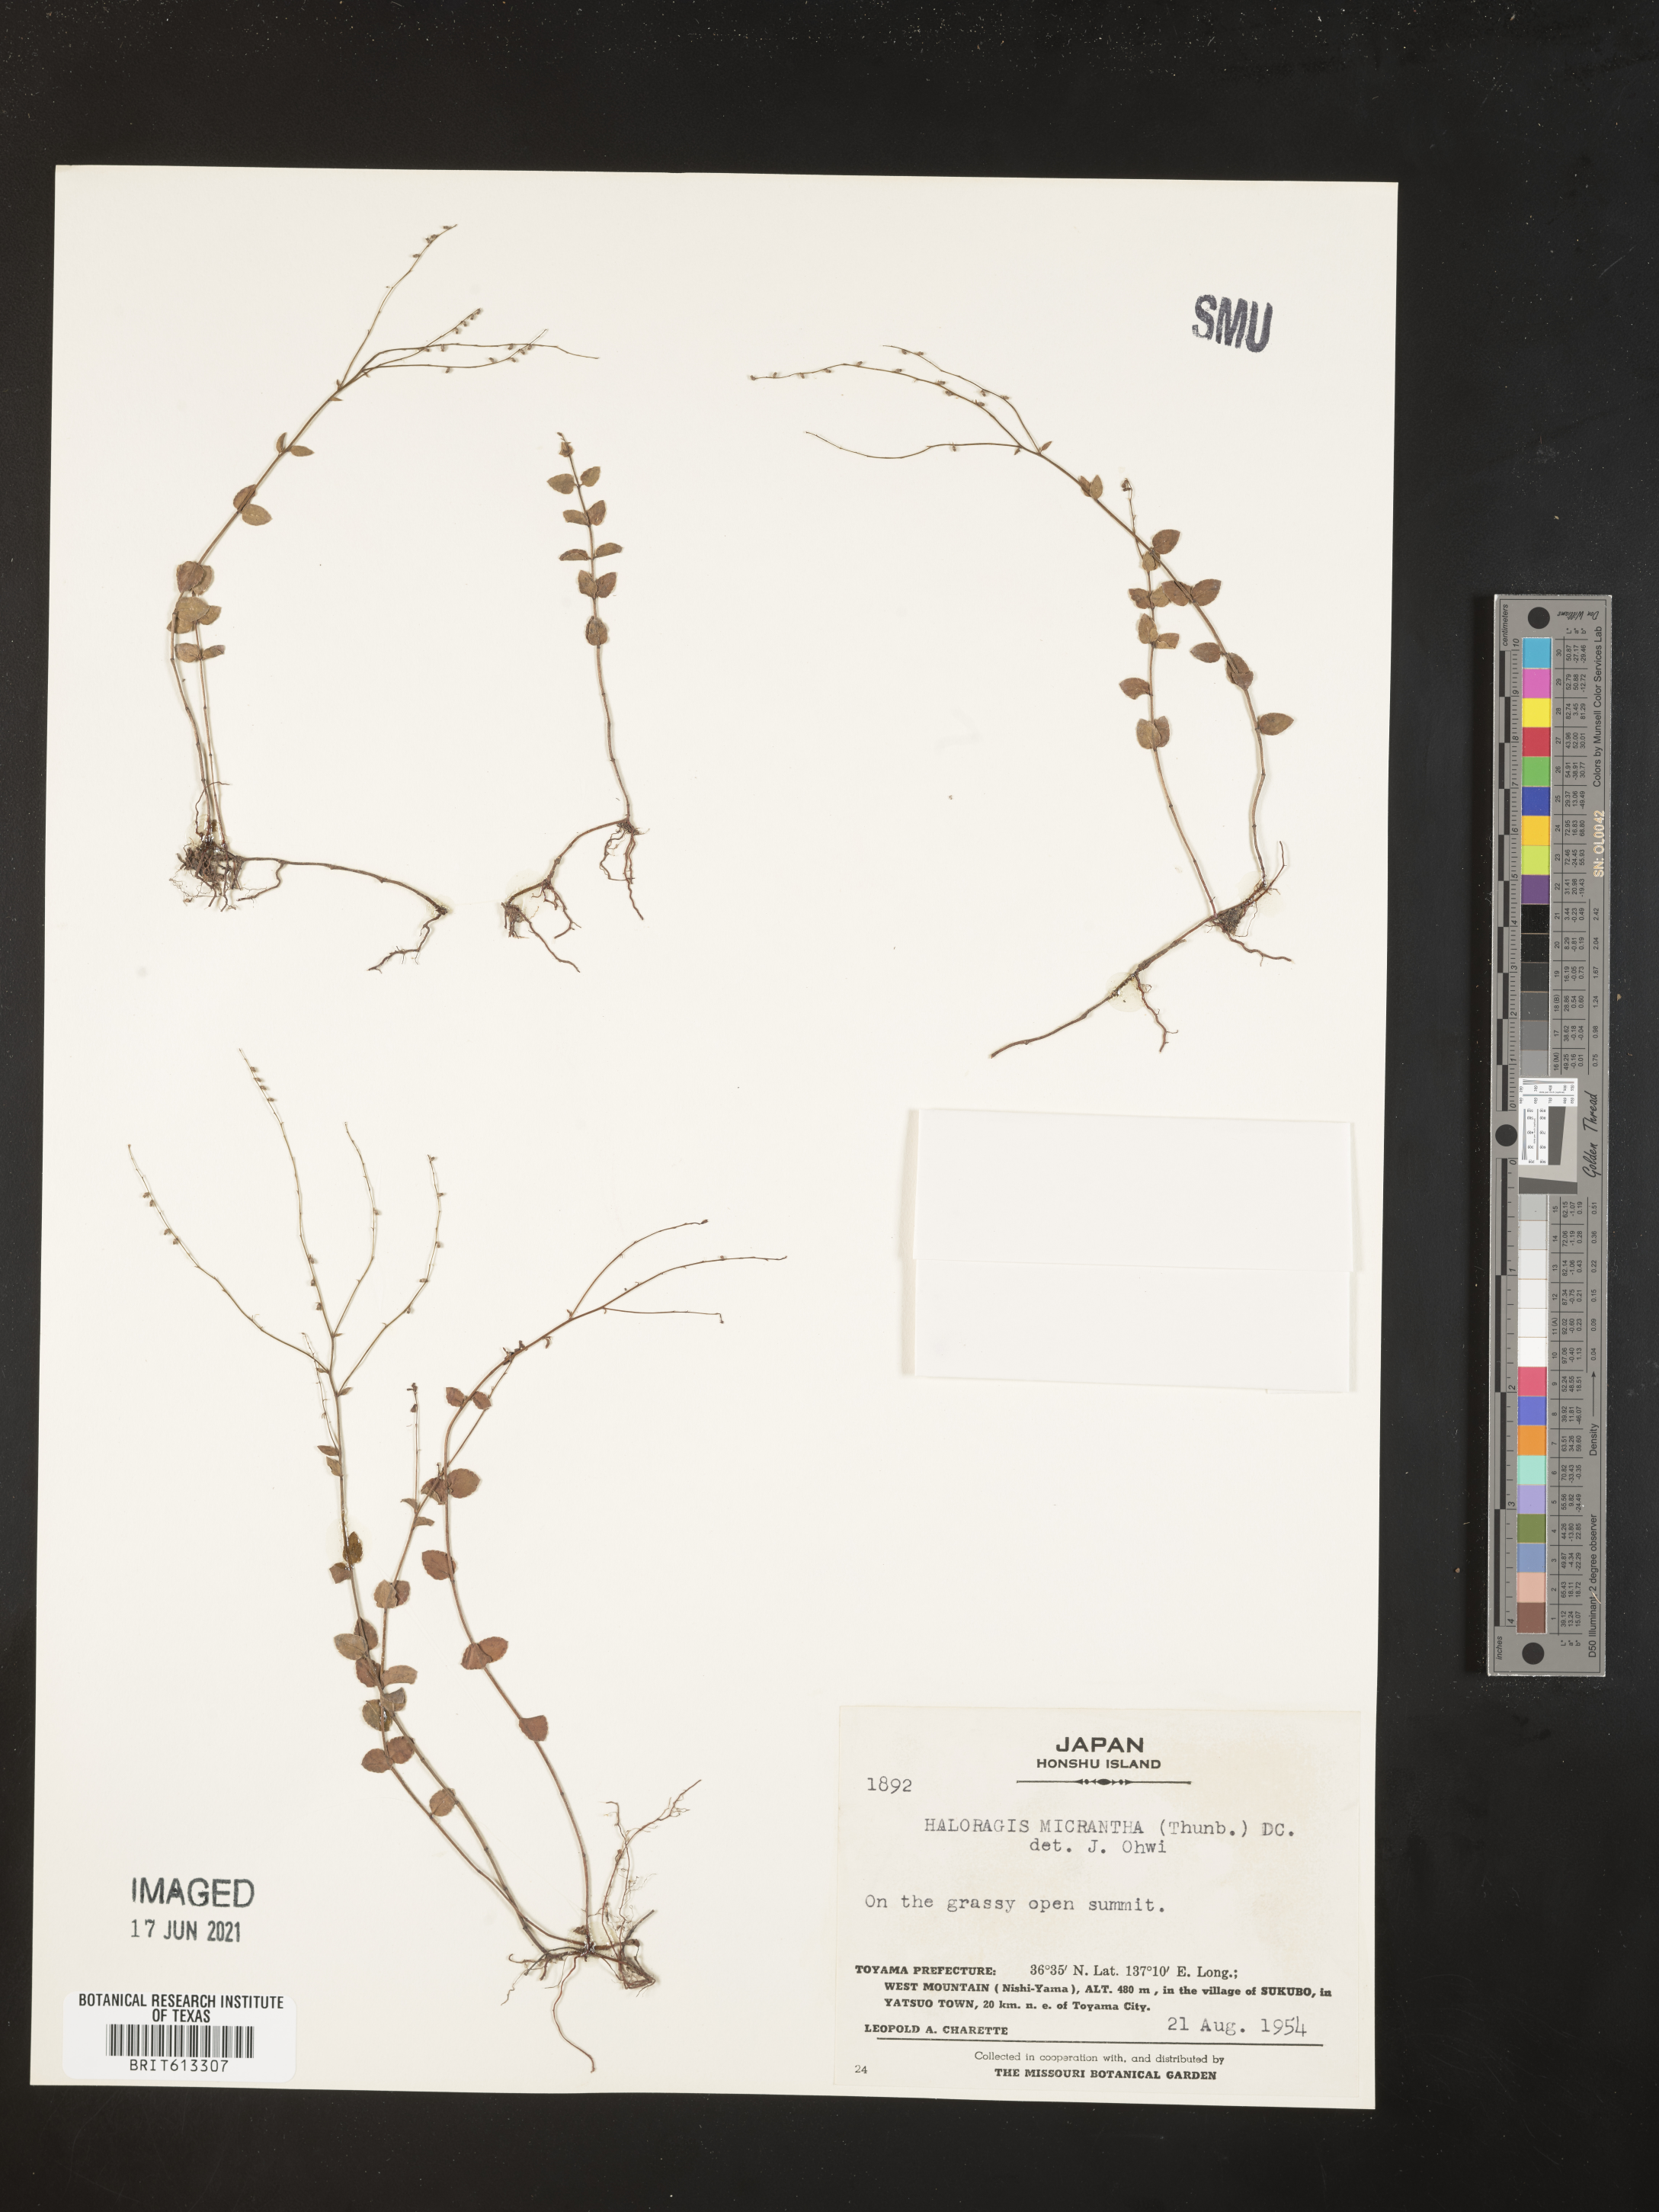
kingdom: Plantae
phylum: Tracheophyta
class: Magnoliopsida
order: Saxifragales
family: Haloragaceae
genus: Gonocarpus
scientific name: Gonocarpus micranthus
